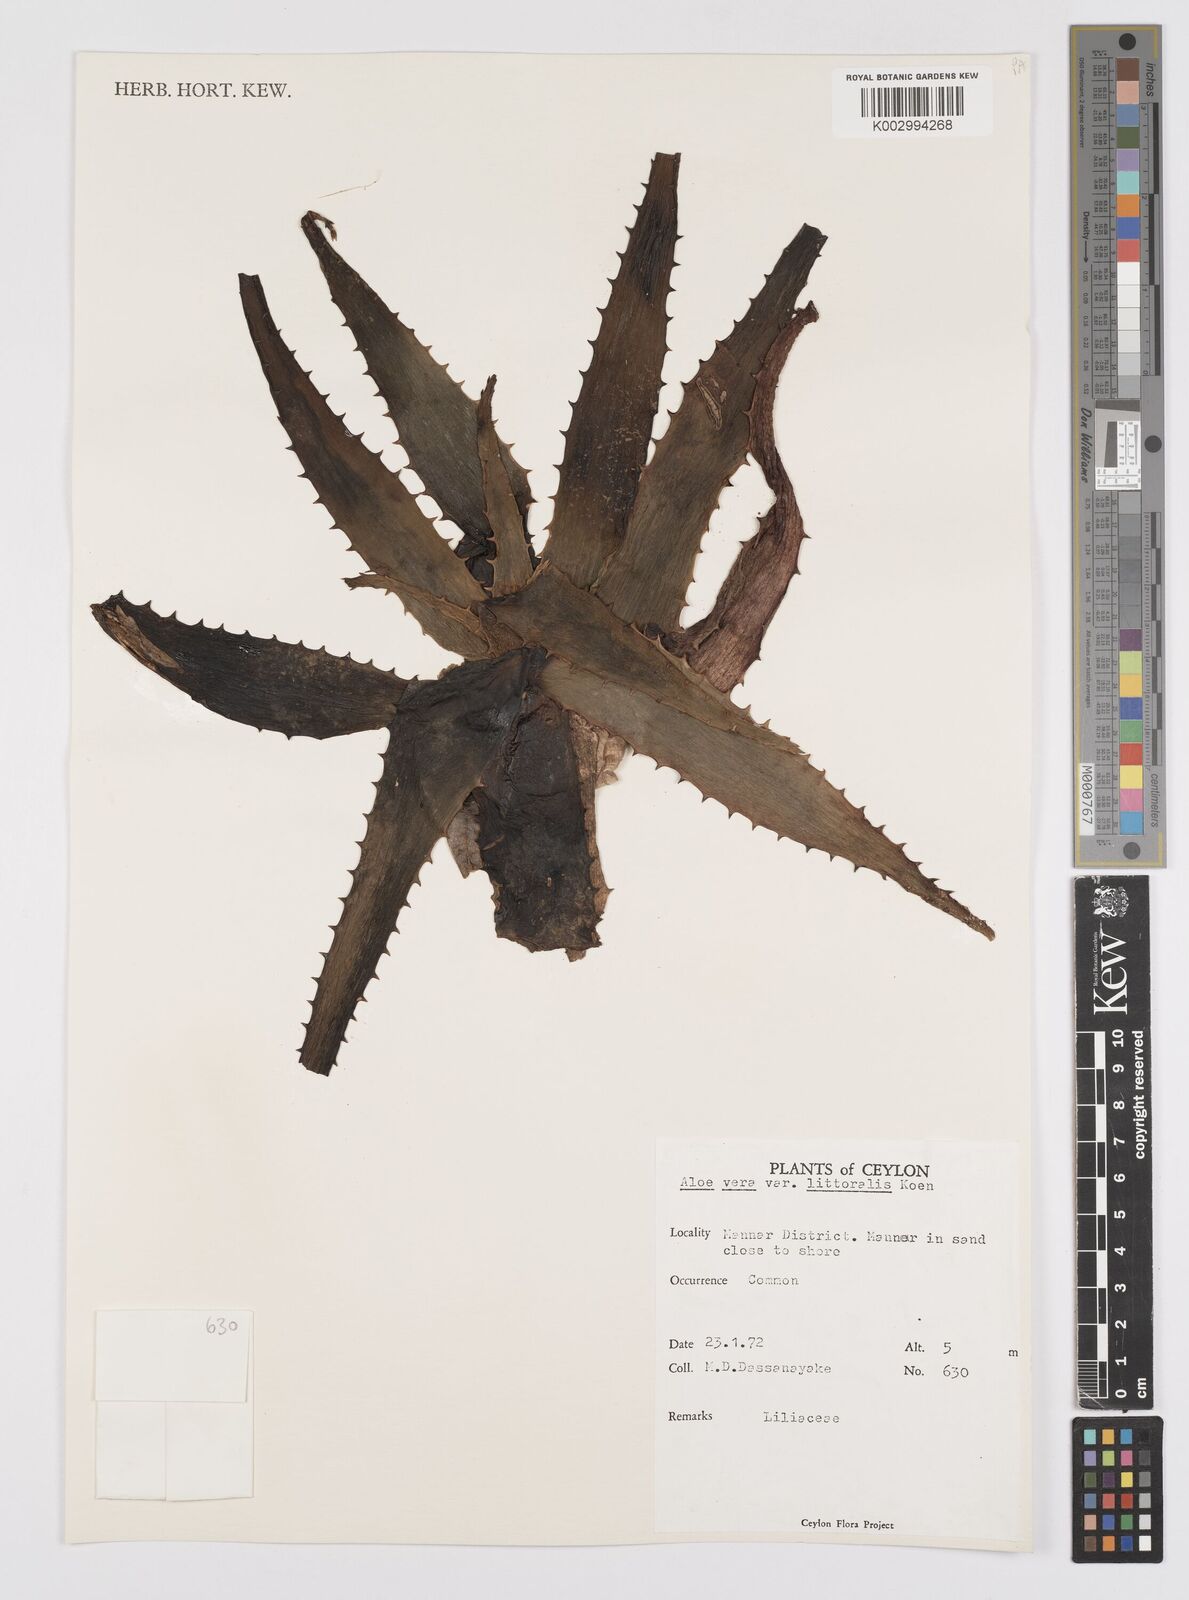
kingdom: Plantae
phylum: Tracheophyta
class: Liliopsida
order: Asparagales
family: Asphodelaceae
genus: Aloe
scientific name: Aloe vera
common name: Barbados aloe
